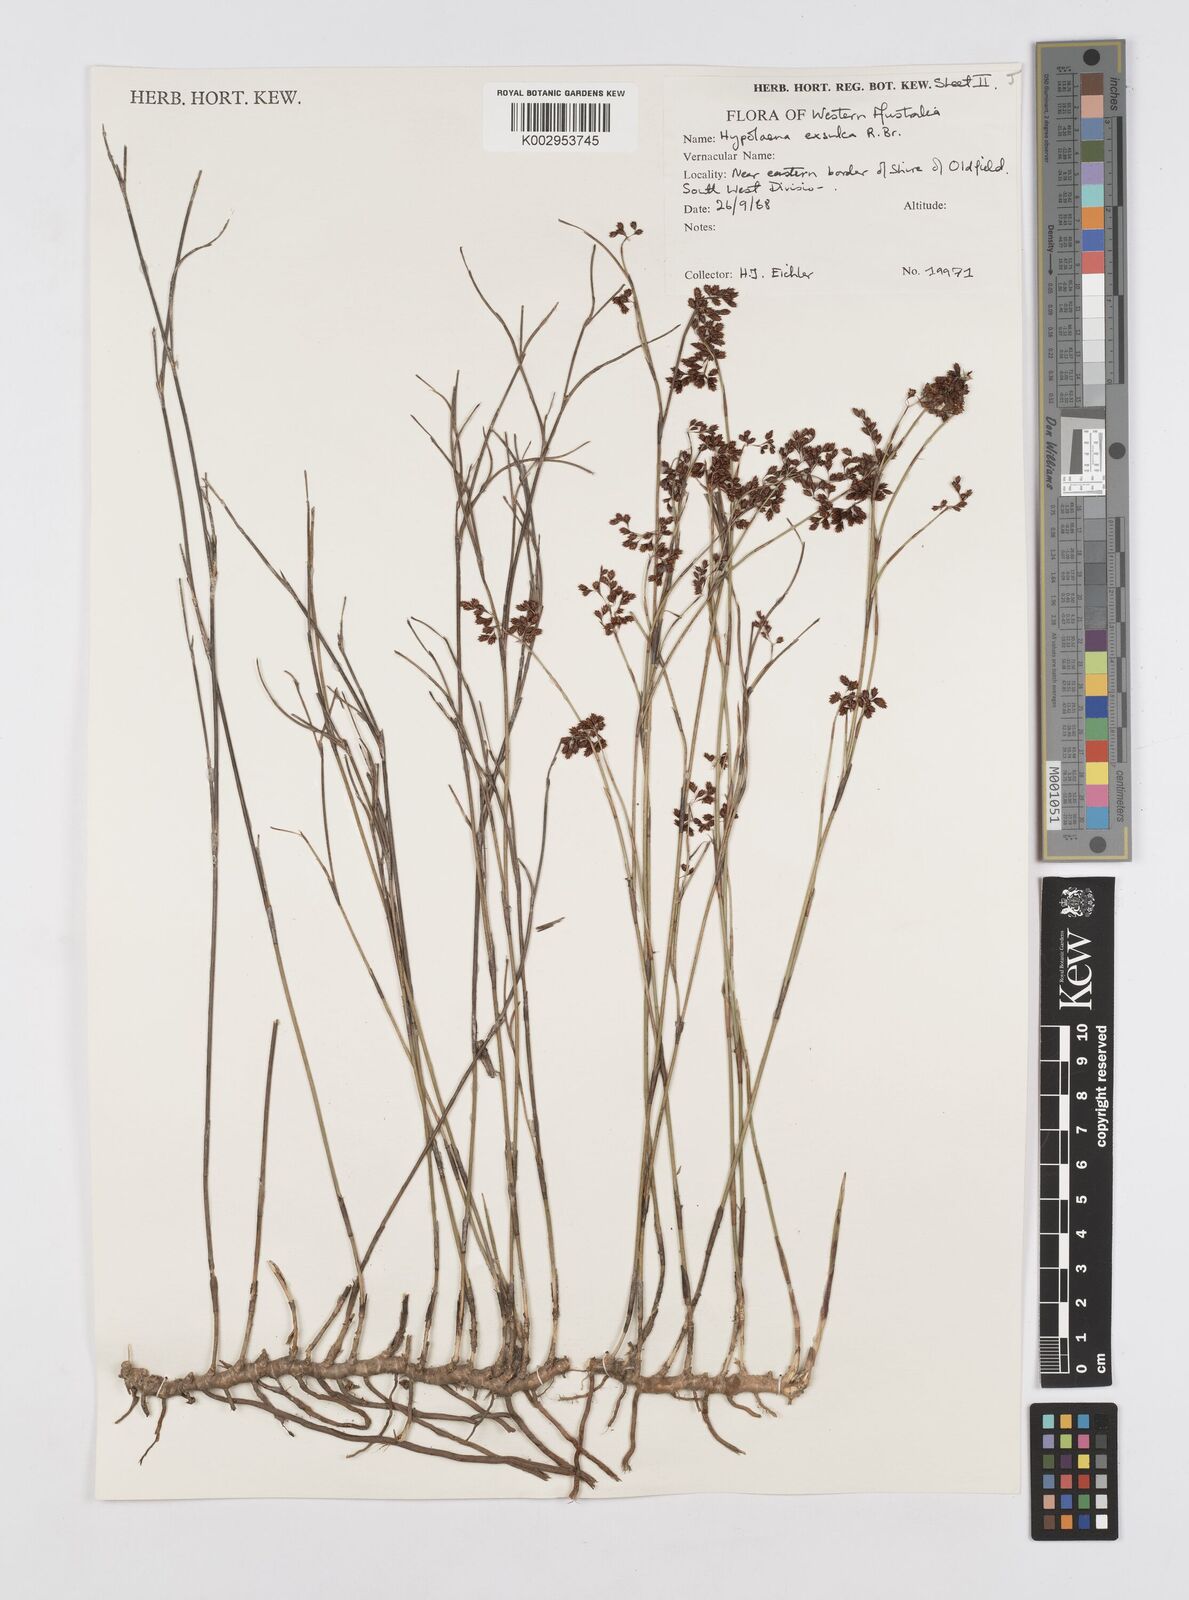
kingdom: Plantae
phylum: Tracheophyta
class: Liliopsida
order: Poales
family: Restionaceae
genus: Hypolaena
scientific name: Hypolaena exsulca
